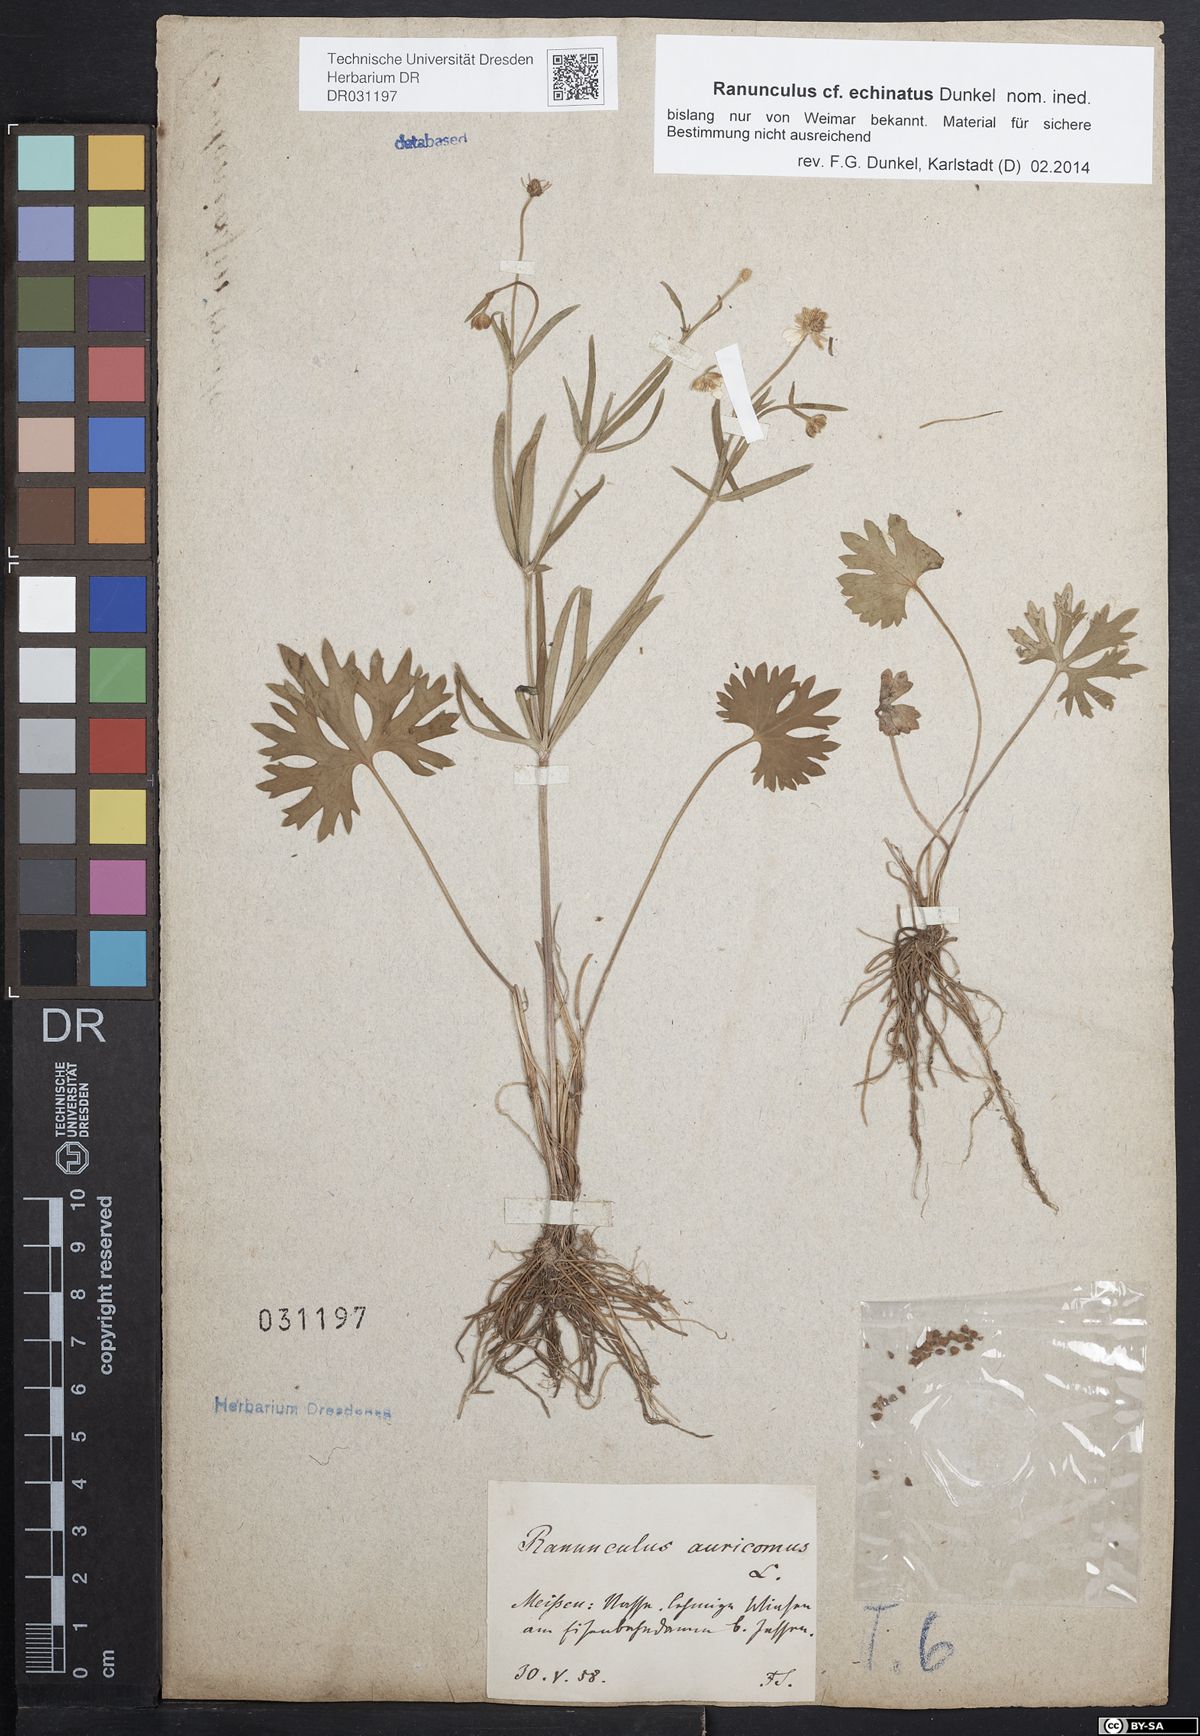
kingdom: Plantae
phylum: Tracheophyta
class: Magnoliopsida
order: Ranunculales
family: Ranunculaceae
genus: Ranunculus
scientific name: Ranunculus auricomus
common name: Goldilocks buttercup
